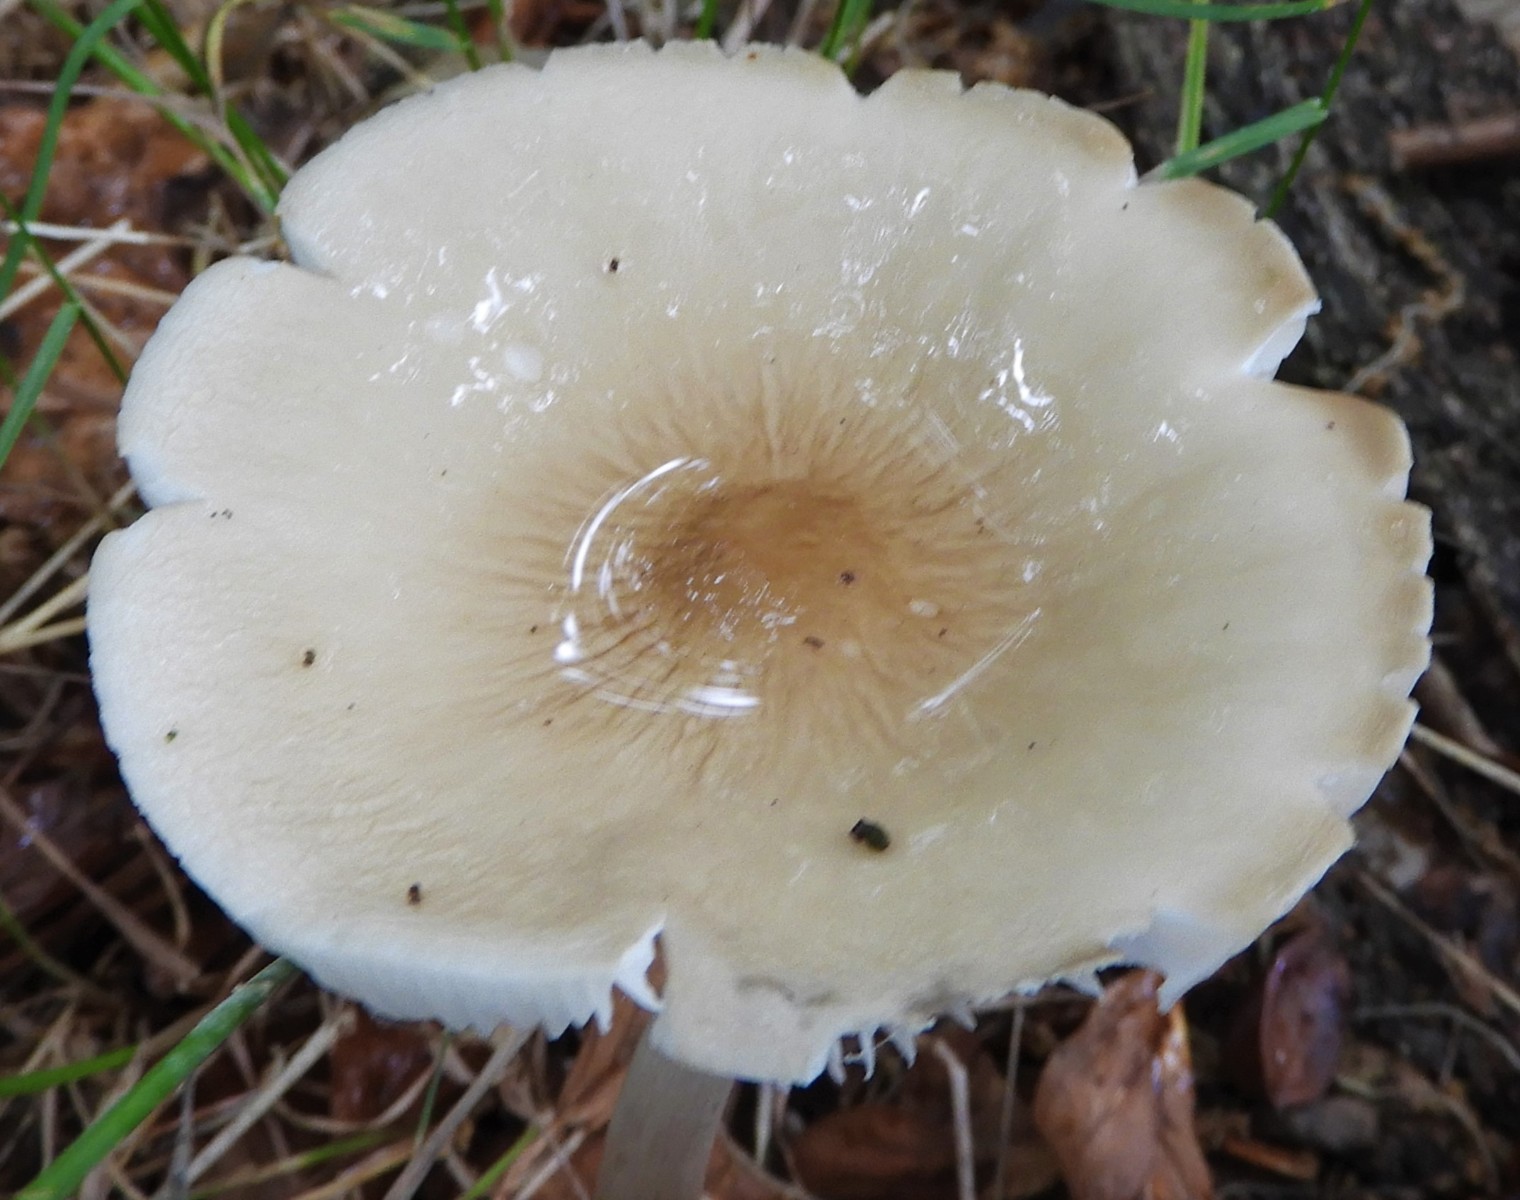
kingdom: Fungi
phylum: Basidiomycota
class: Agaricomycetes
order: Agaricales
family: Physalacriaceae
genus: Hymenopellis
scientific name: Hymenopellis radicata
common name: almindelig pælerodshat
